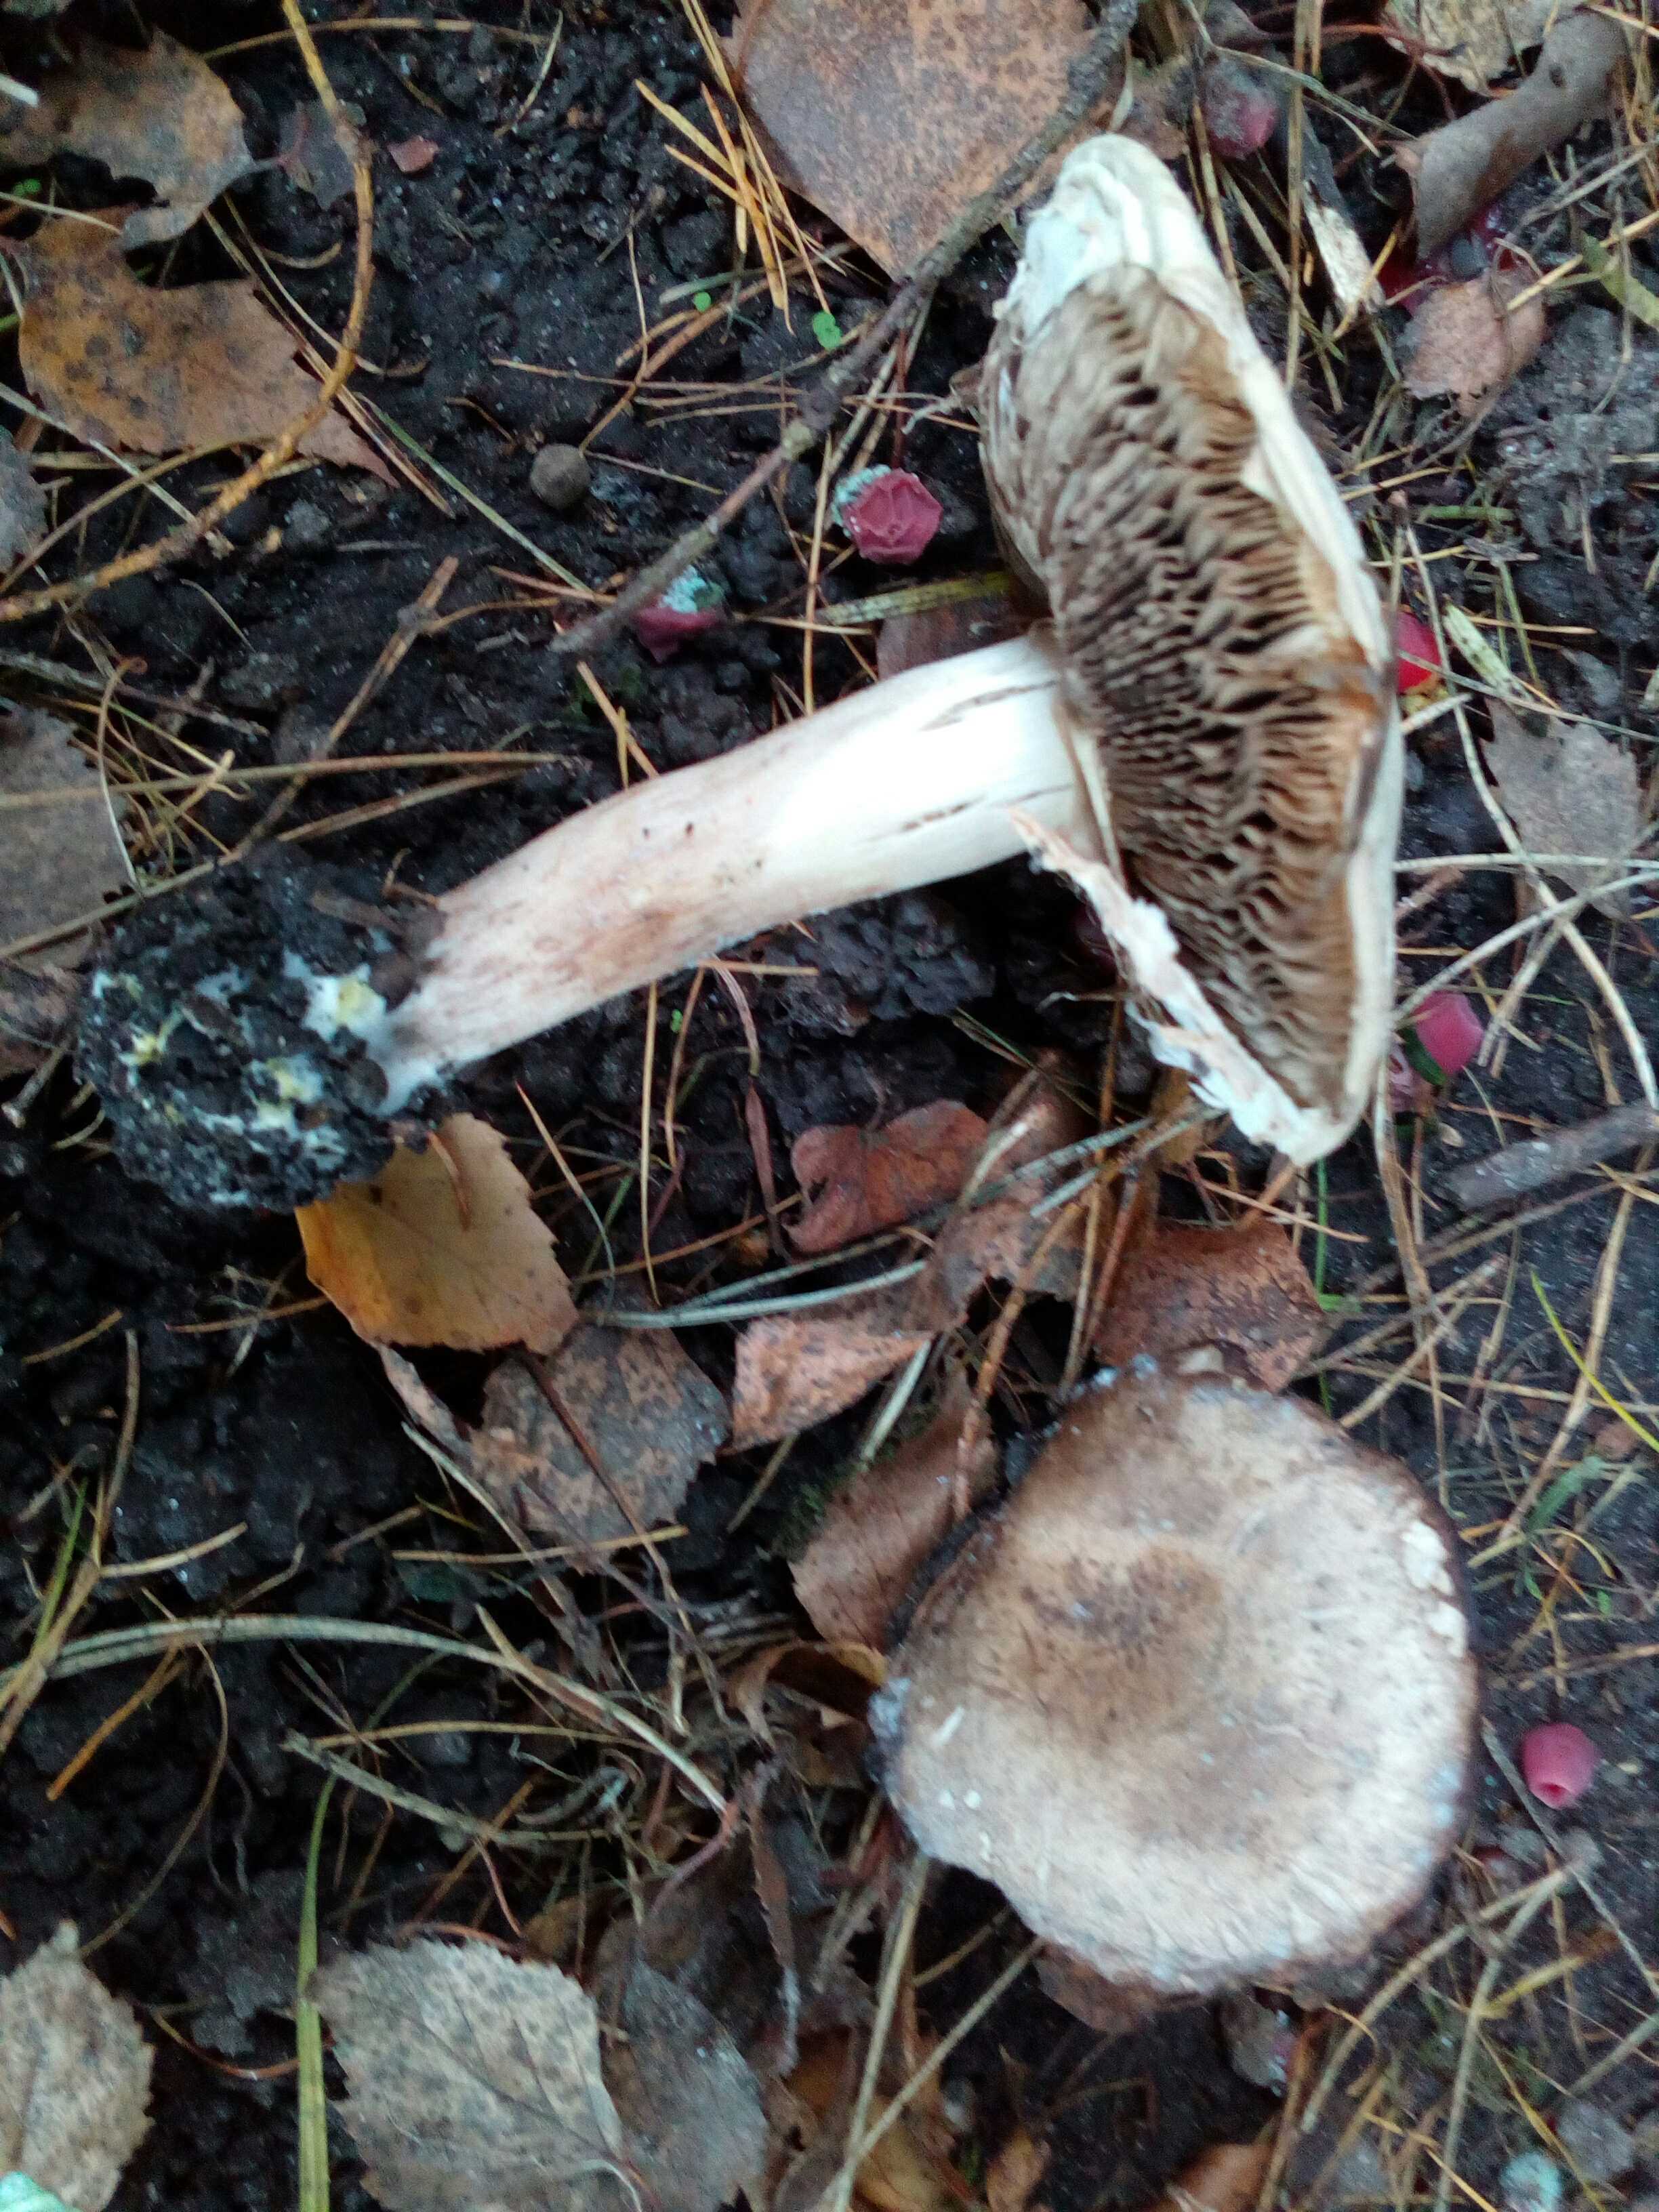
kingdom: Fungi
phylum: Basidiomycota
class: Agaricomycetes
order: Agaricales
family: Agaricaceae
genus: Agaricus
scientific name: Agaricus xanthodermus
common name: karbol-champignon
